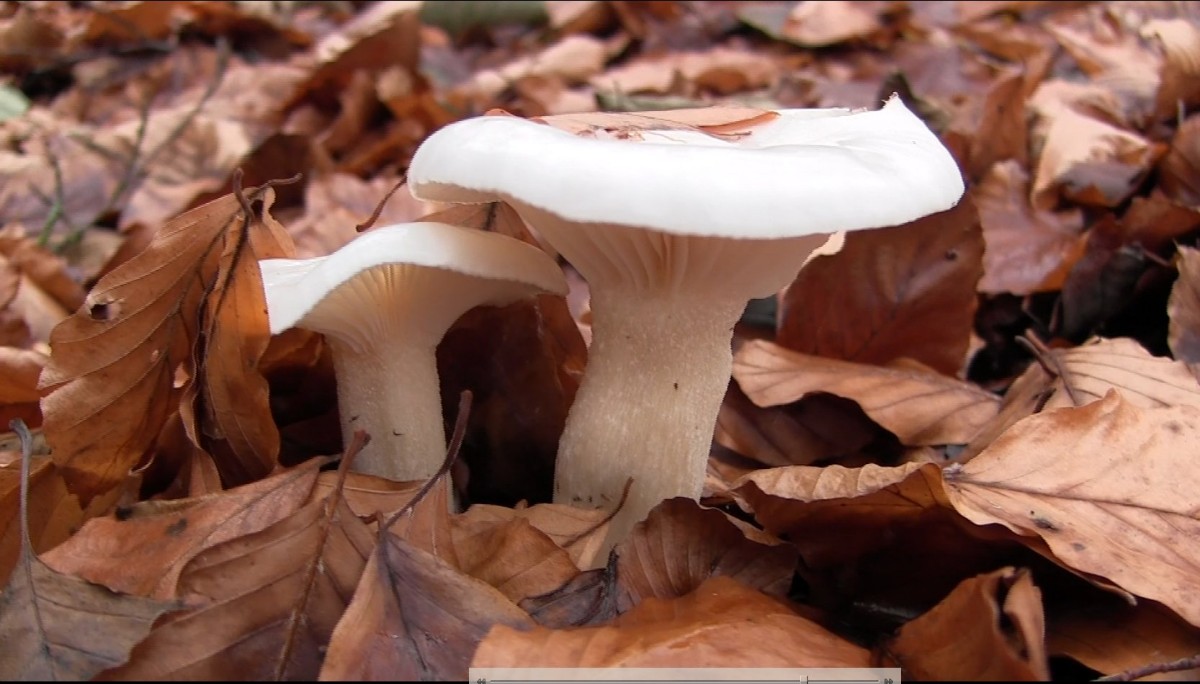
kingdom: Fungi
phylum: Basidiomycota
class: Agaricomycetes
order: Agaricales
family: Hygrophoraceae
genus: Hygrophorus
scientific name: Hygrophorus eburneus
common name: elfenbens-sneglehat
